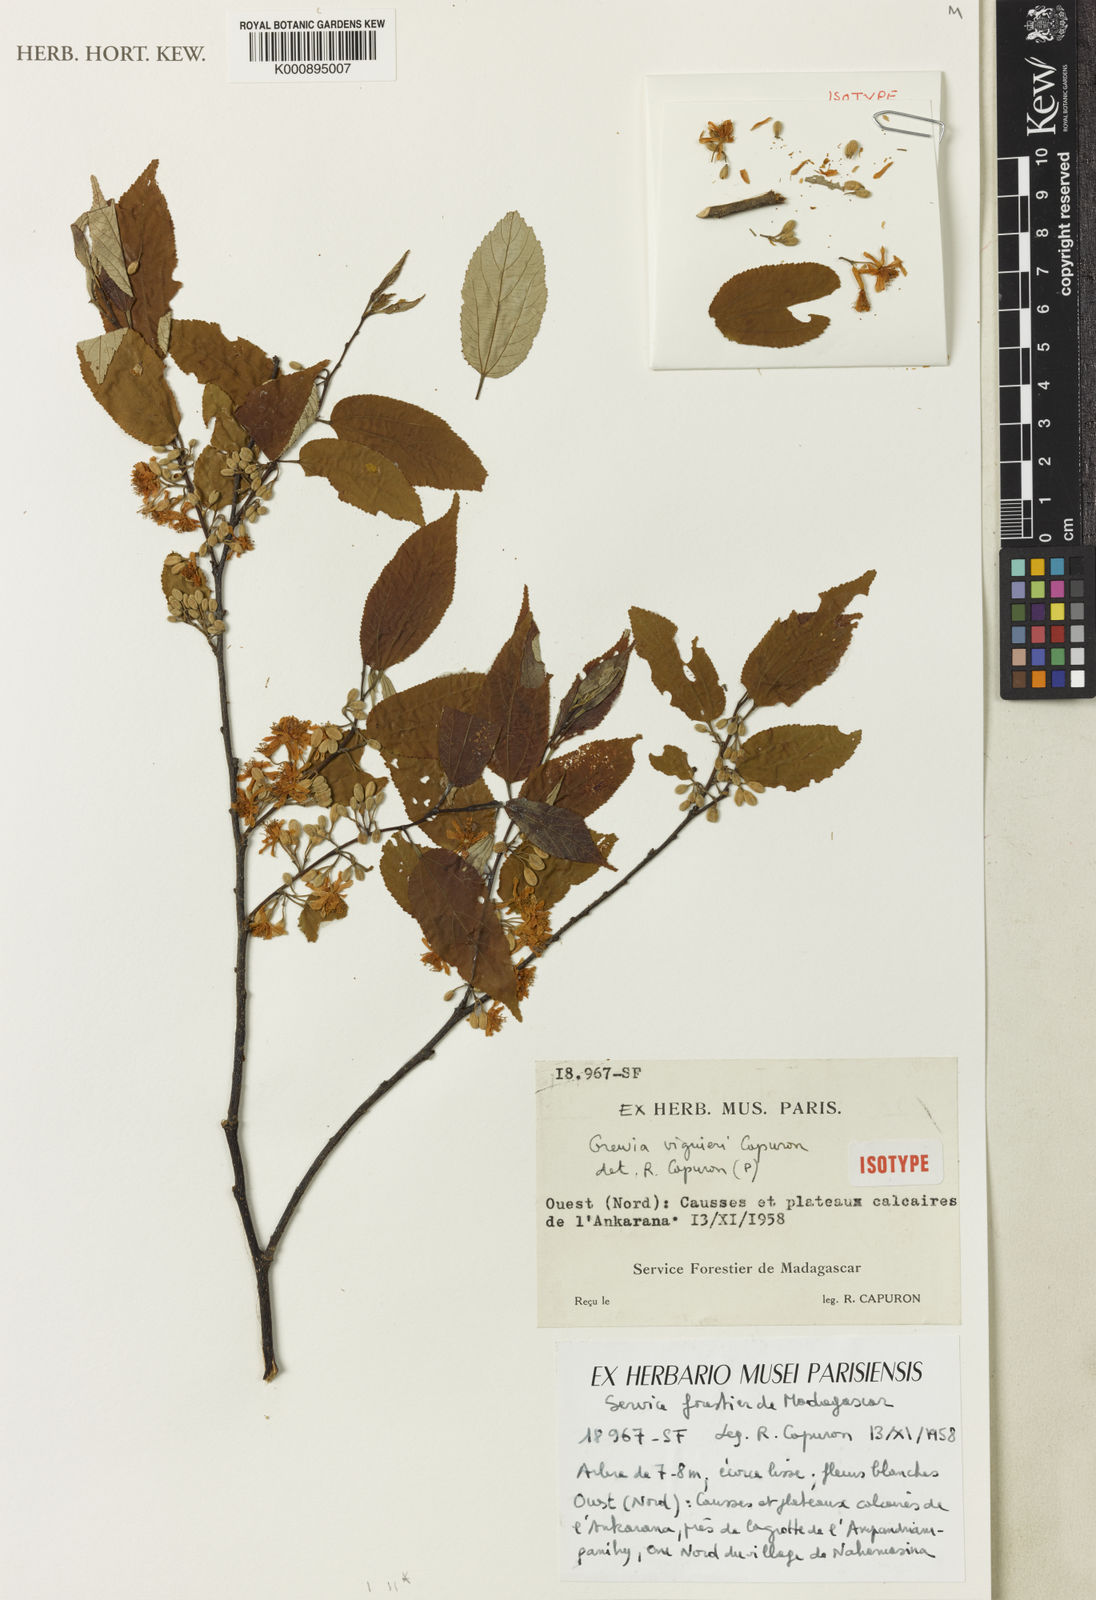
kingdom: Plantae
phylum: Tracheophyta
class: Magnoliopsida
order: Malvales
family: Malvaceae
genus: Grewia
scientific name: Grewia viguieri
